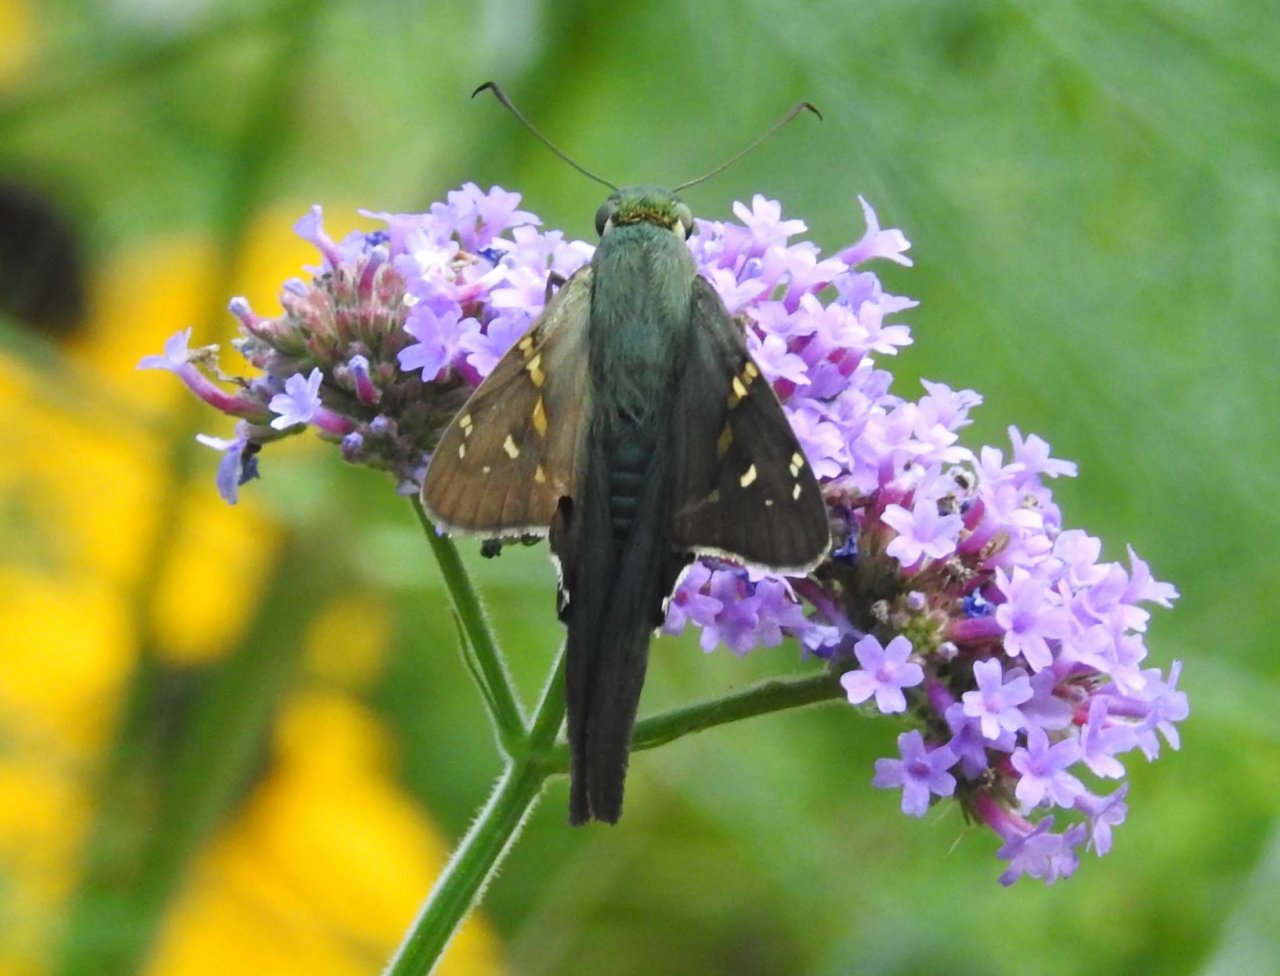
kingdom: Animalia
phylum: Arthropoda
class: Insecta
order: Lepidoptera
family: Hesperiidae
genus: Urbanus
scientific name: Urbanus proteus
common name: Long-tailed Skipper
